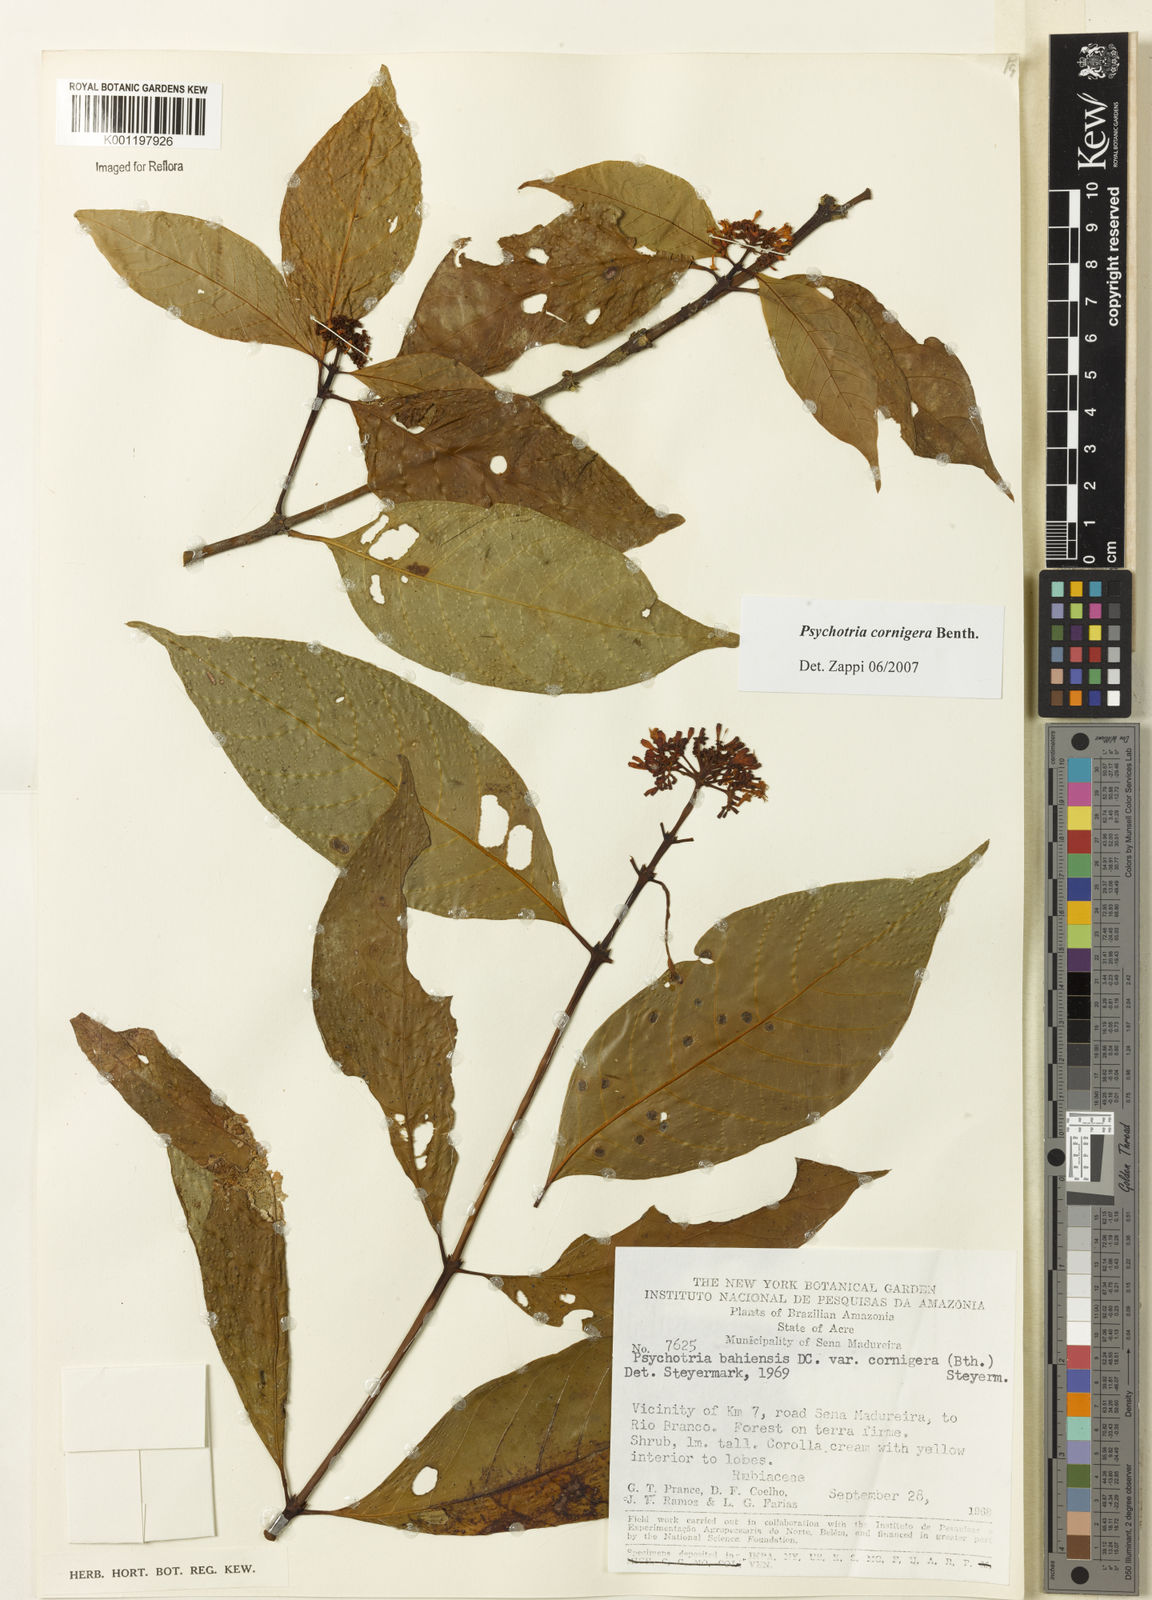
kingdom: Plantae
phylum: Tracheophyta
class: Magnoliopsida
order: Gentianales
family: Rubiaceae
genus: Psychotria
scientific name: Psychotria bahiensis
